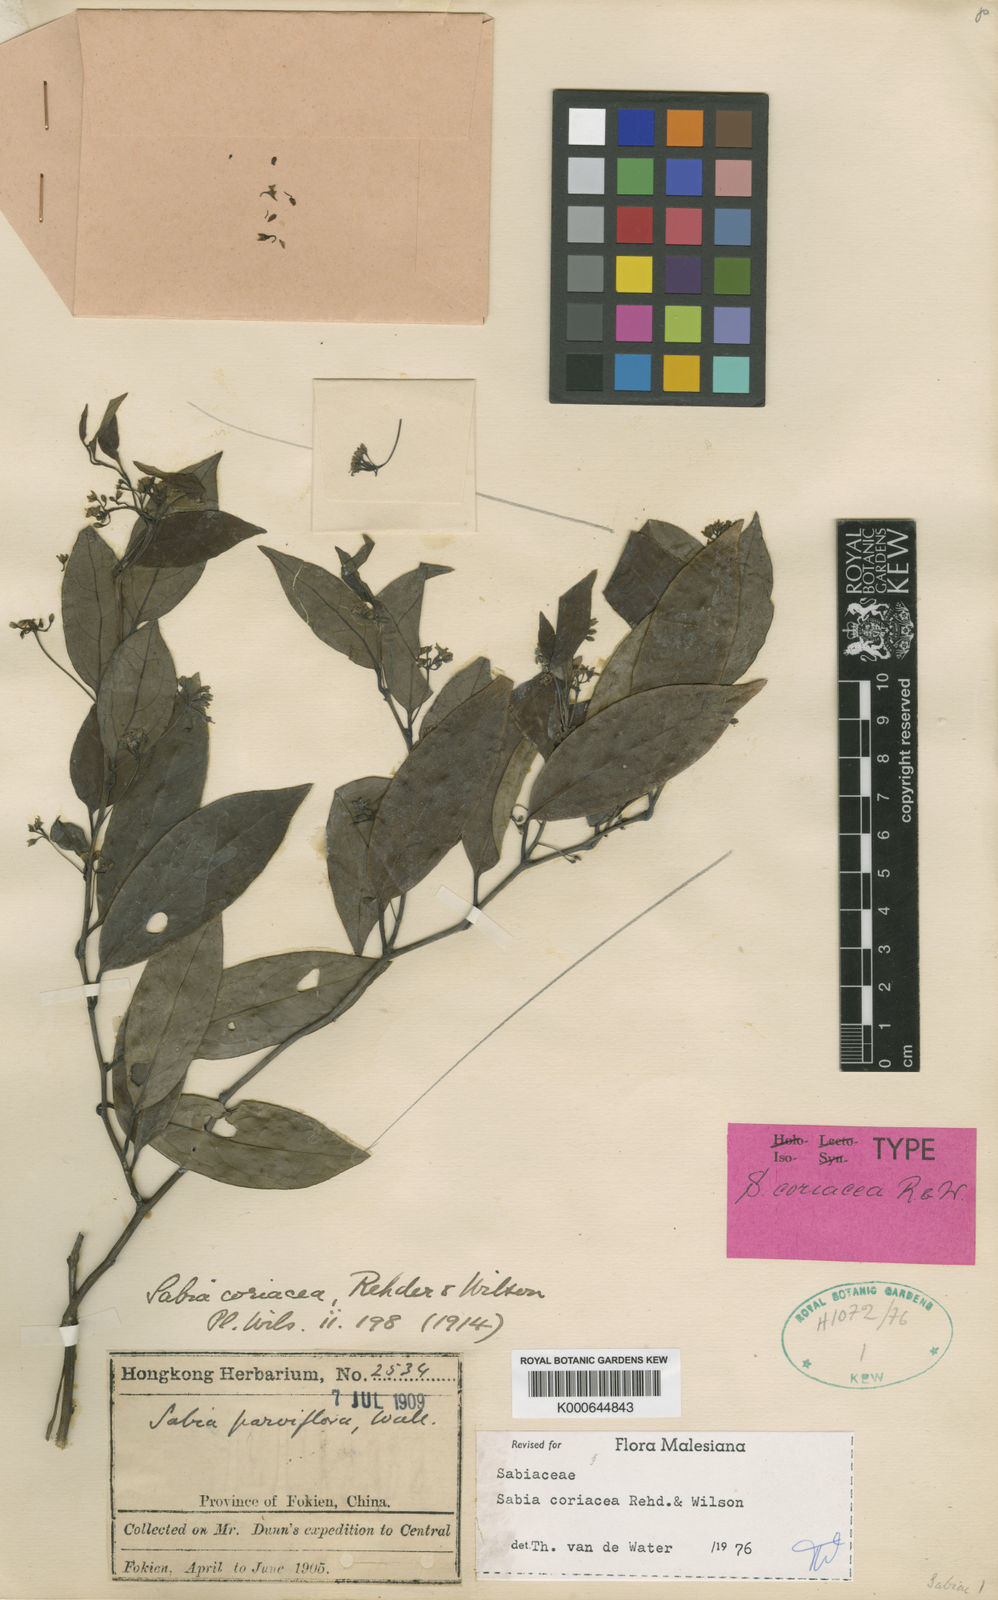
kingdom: Plantae
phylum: Tracheophyta
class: Magnoliopsida
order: Proteales
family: Sabiaceae
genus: Sabia
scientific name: Sabia coriacea
